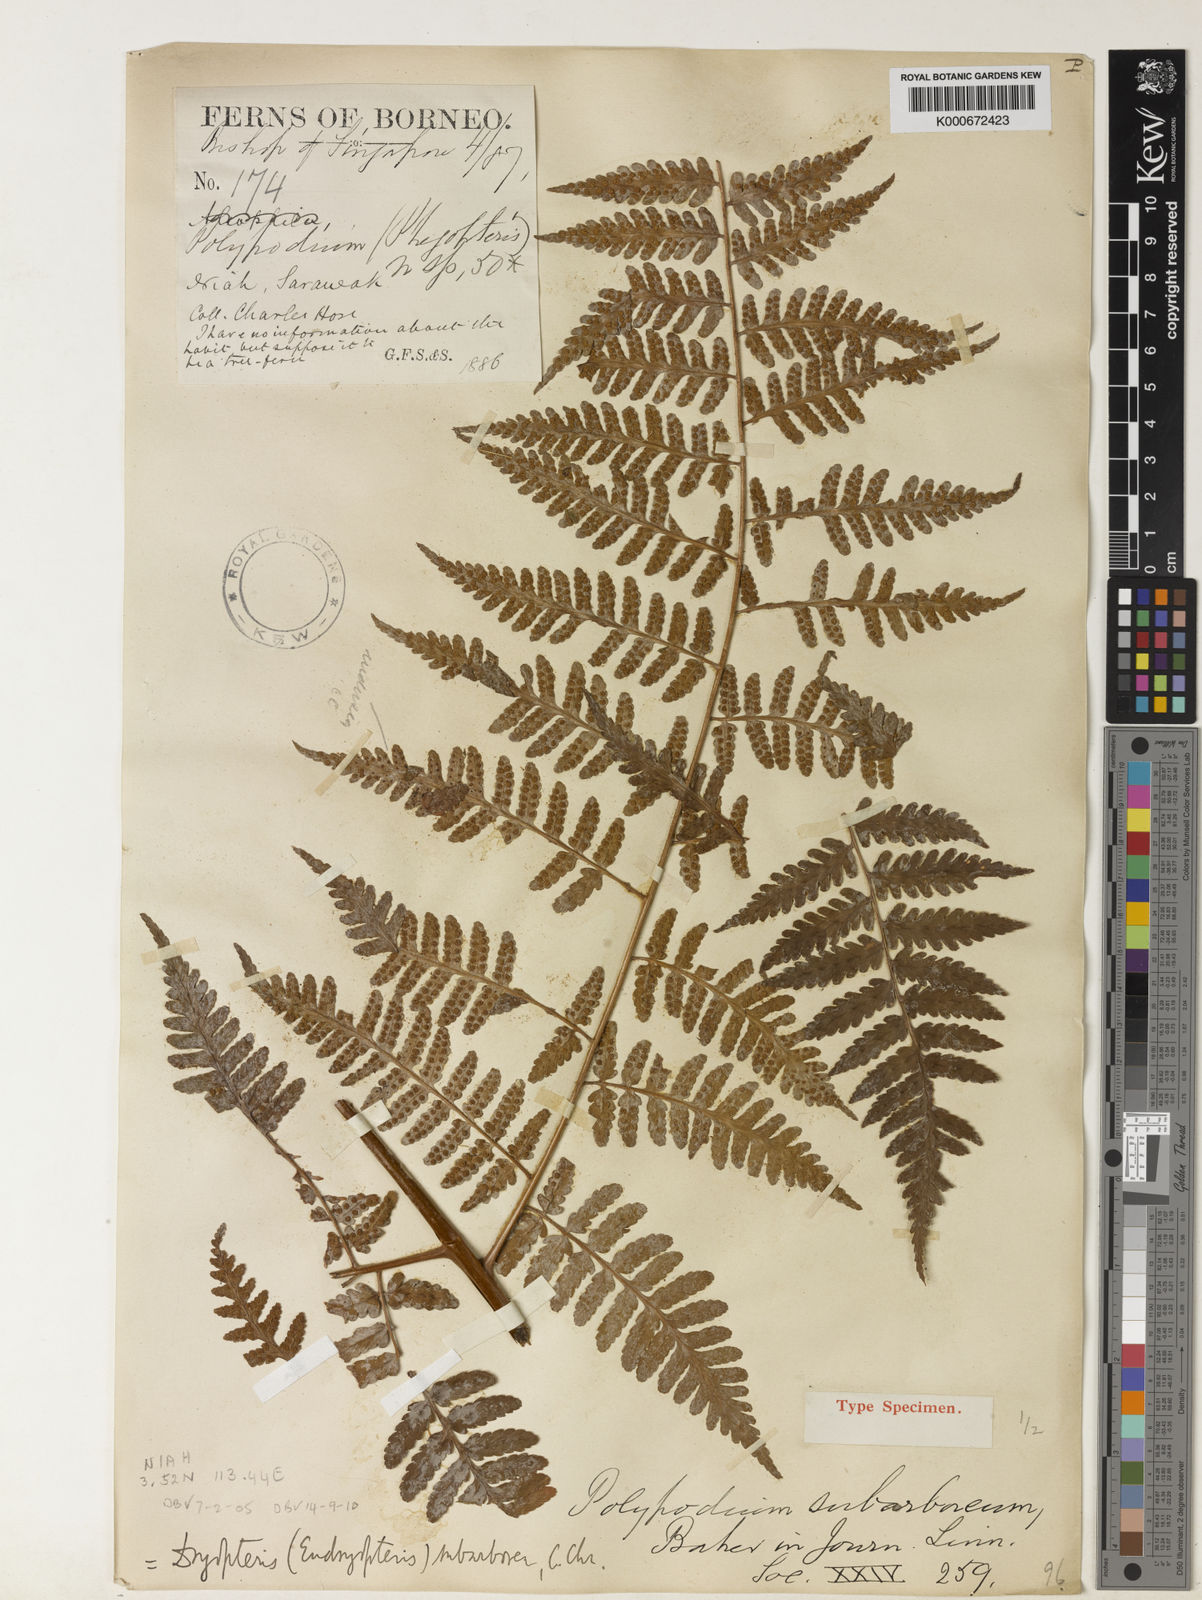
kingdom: Plantae
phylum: Tracheophyta
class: Polypodiopsida
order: Polypodiales
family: Dryopteridaceae
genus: Dryopteris
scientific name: Dryopteris subarborea
